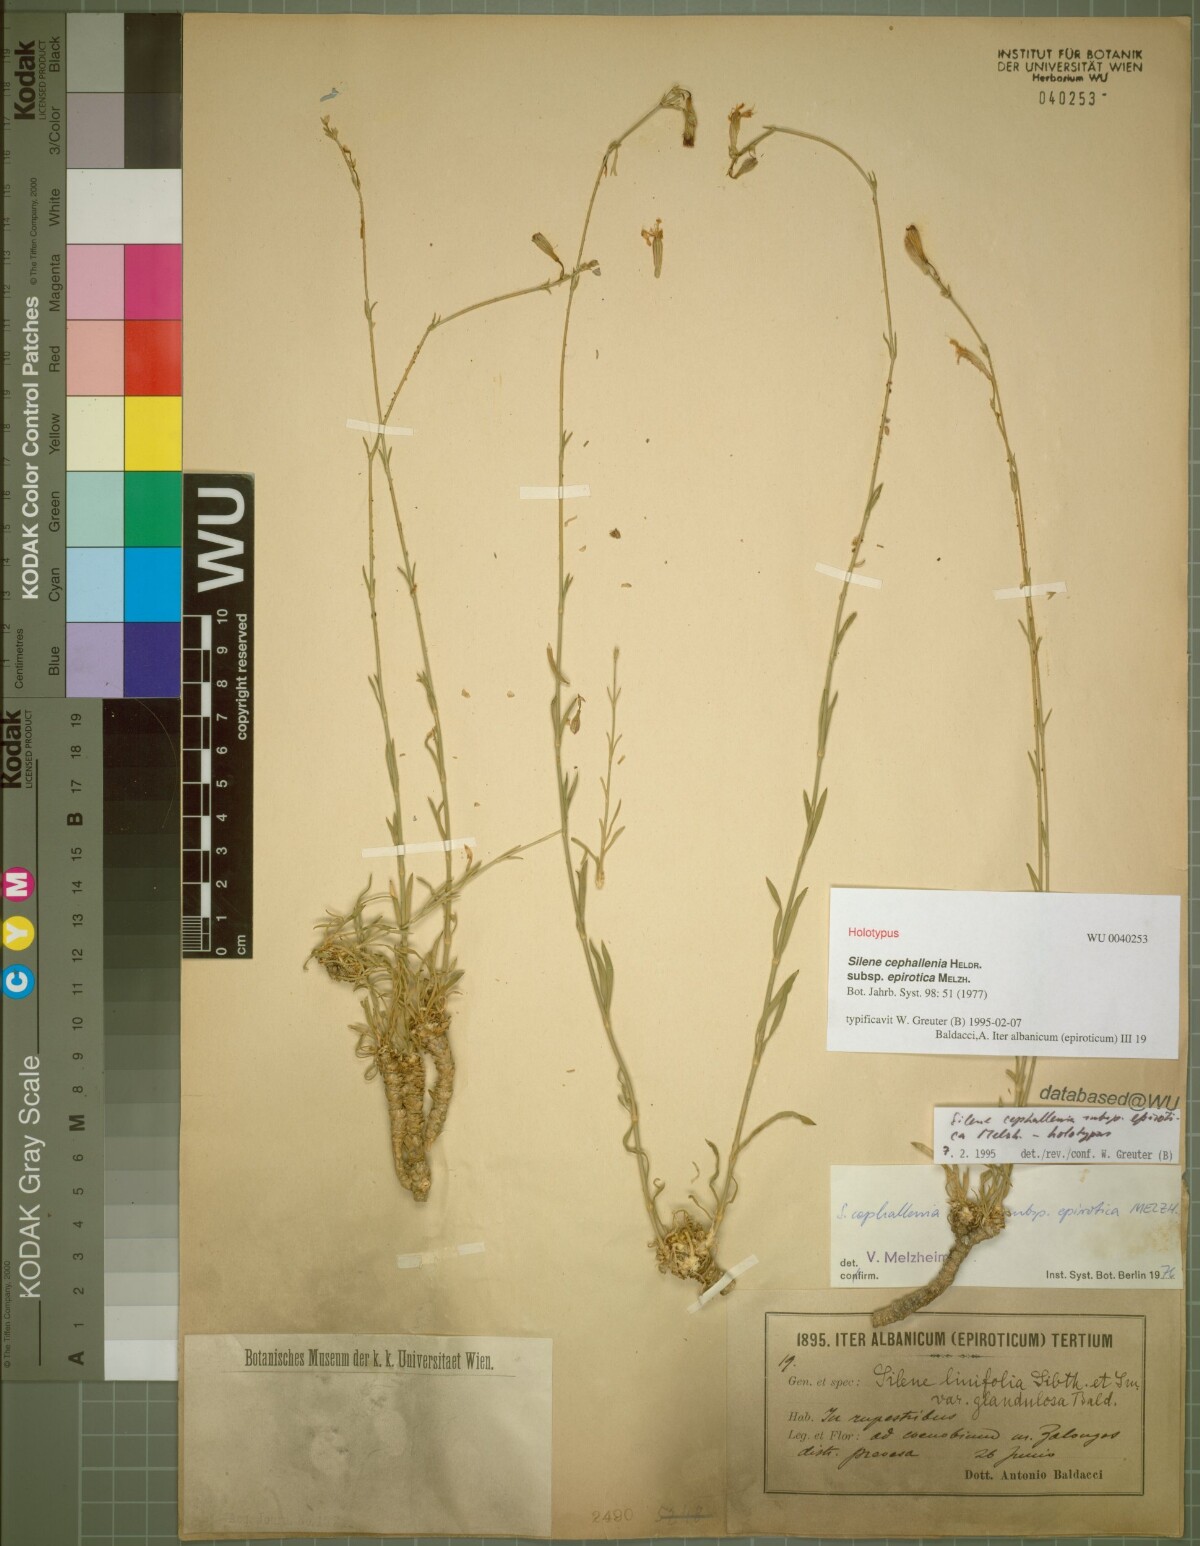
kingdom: Plantae
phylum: Tracheophyta
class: Magnoliopsida
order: Caryophyllales
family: Caryophyllaceae
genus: Silene
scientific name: Silene cephallenia
